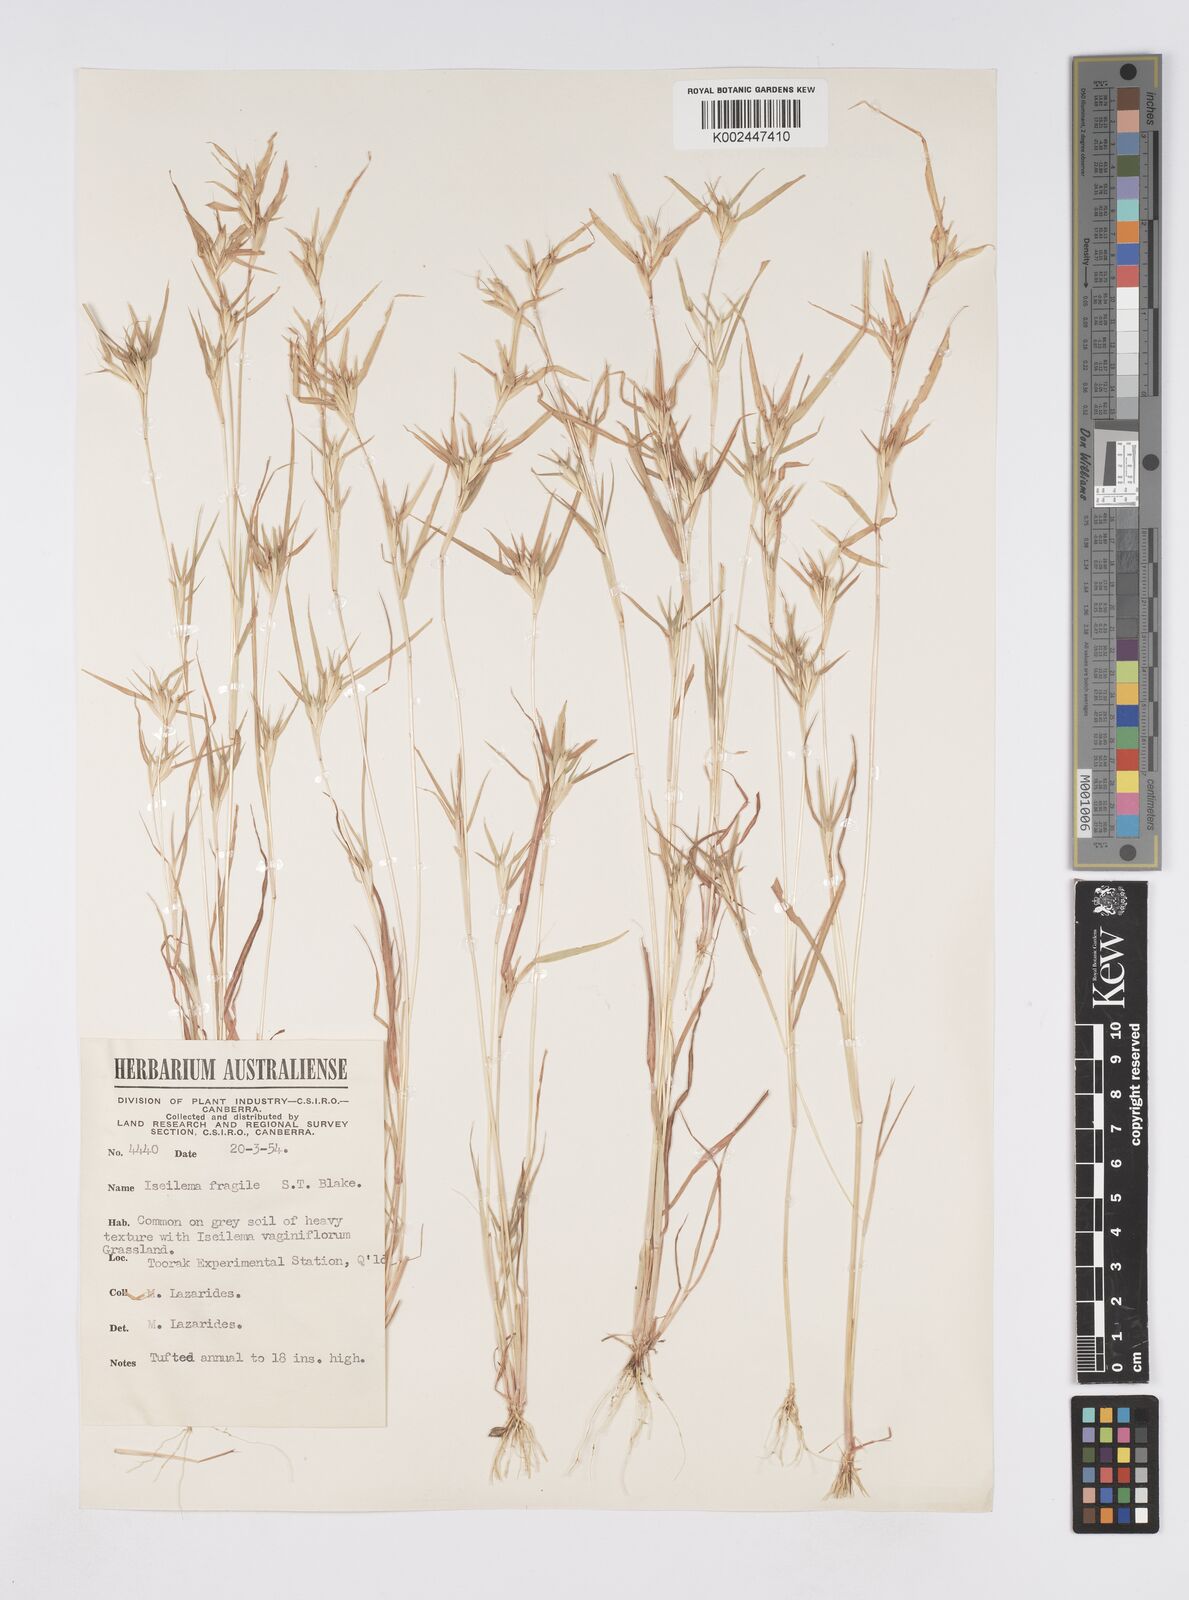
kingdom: Plantae
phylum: Tracheophyta
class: Liliopsida
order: Poales
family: Poaceae
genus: Iseilema
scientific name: Iseilema fragile
